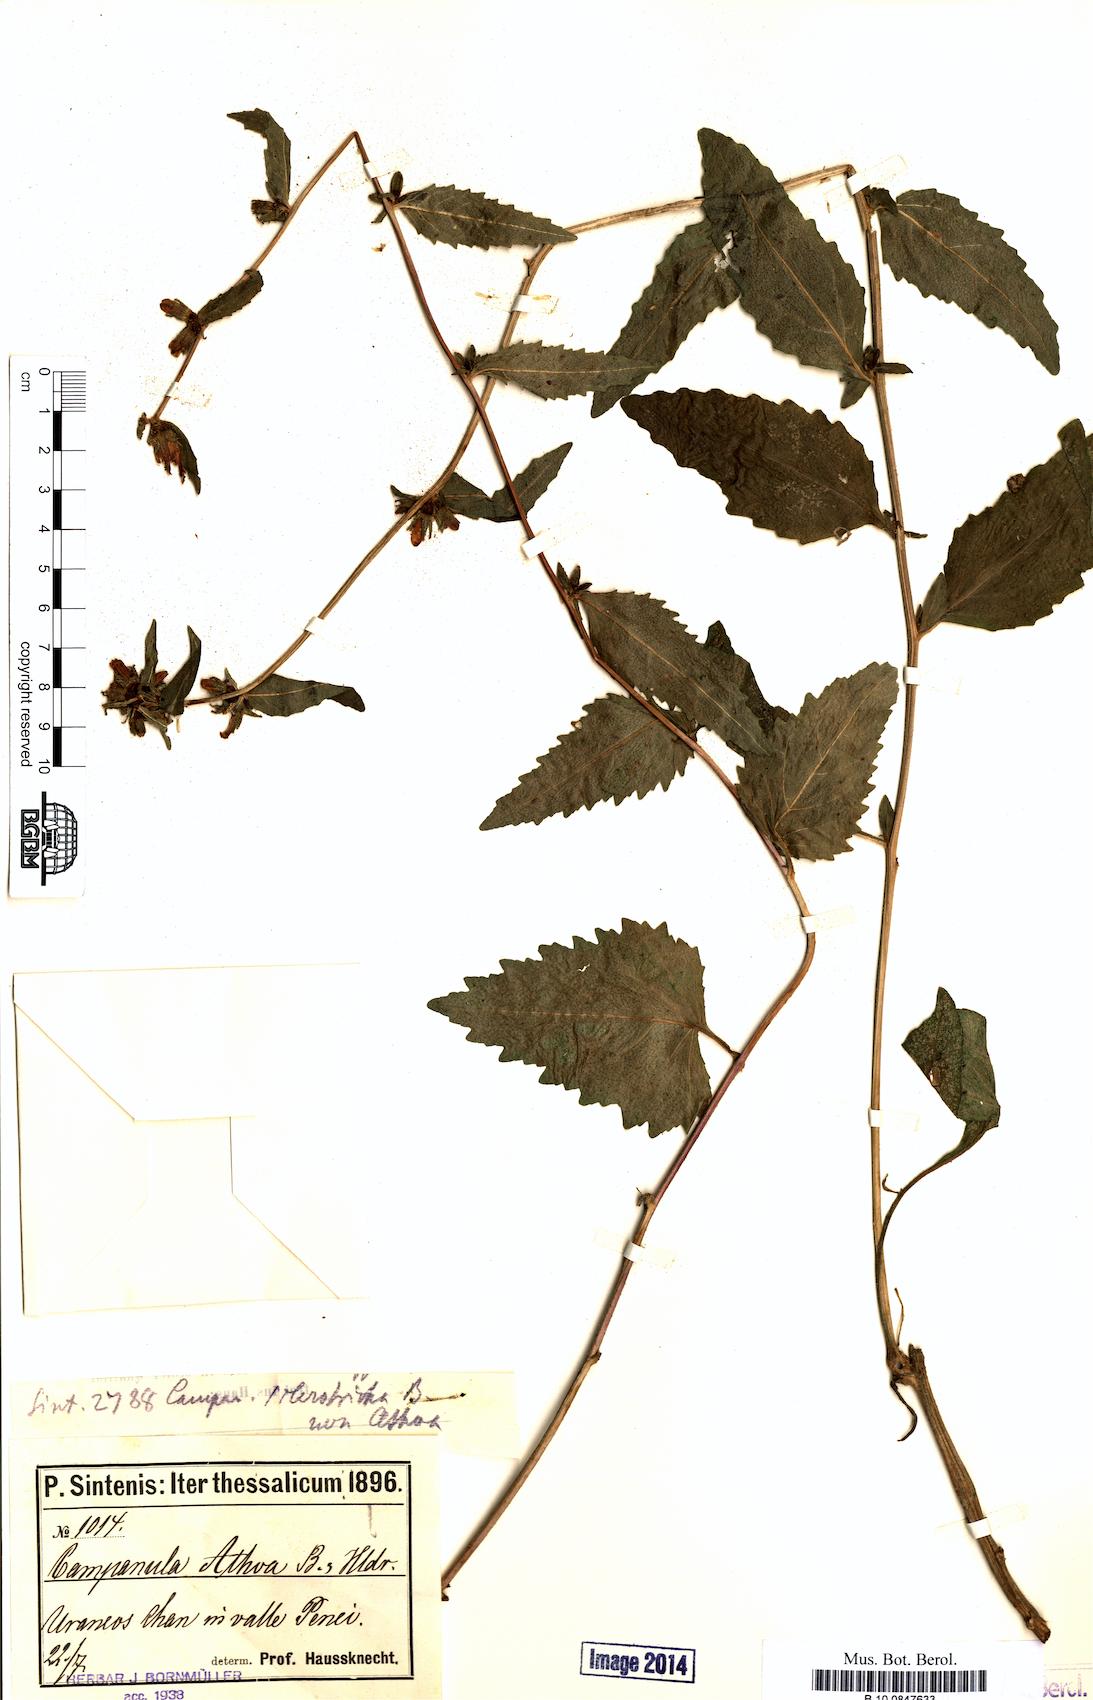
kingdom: Plantae
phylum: Tracheophyta
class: Magnoliopsida
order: Asterales
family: Campanulaceae
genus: Campanula
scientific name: Campanula trachelium
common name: Nettle-leaved bellflower
